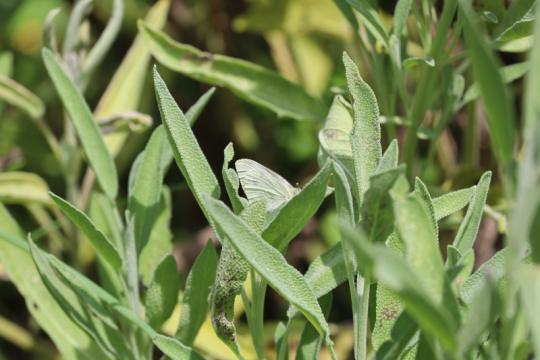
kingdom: Animalia
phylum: Arthropoda
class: Insecta
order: Lepidoptera
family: Pieridae
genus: Pieris
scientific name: Pieris rapae
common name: Cabbage White
